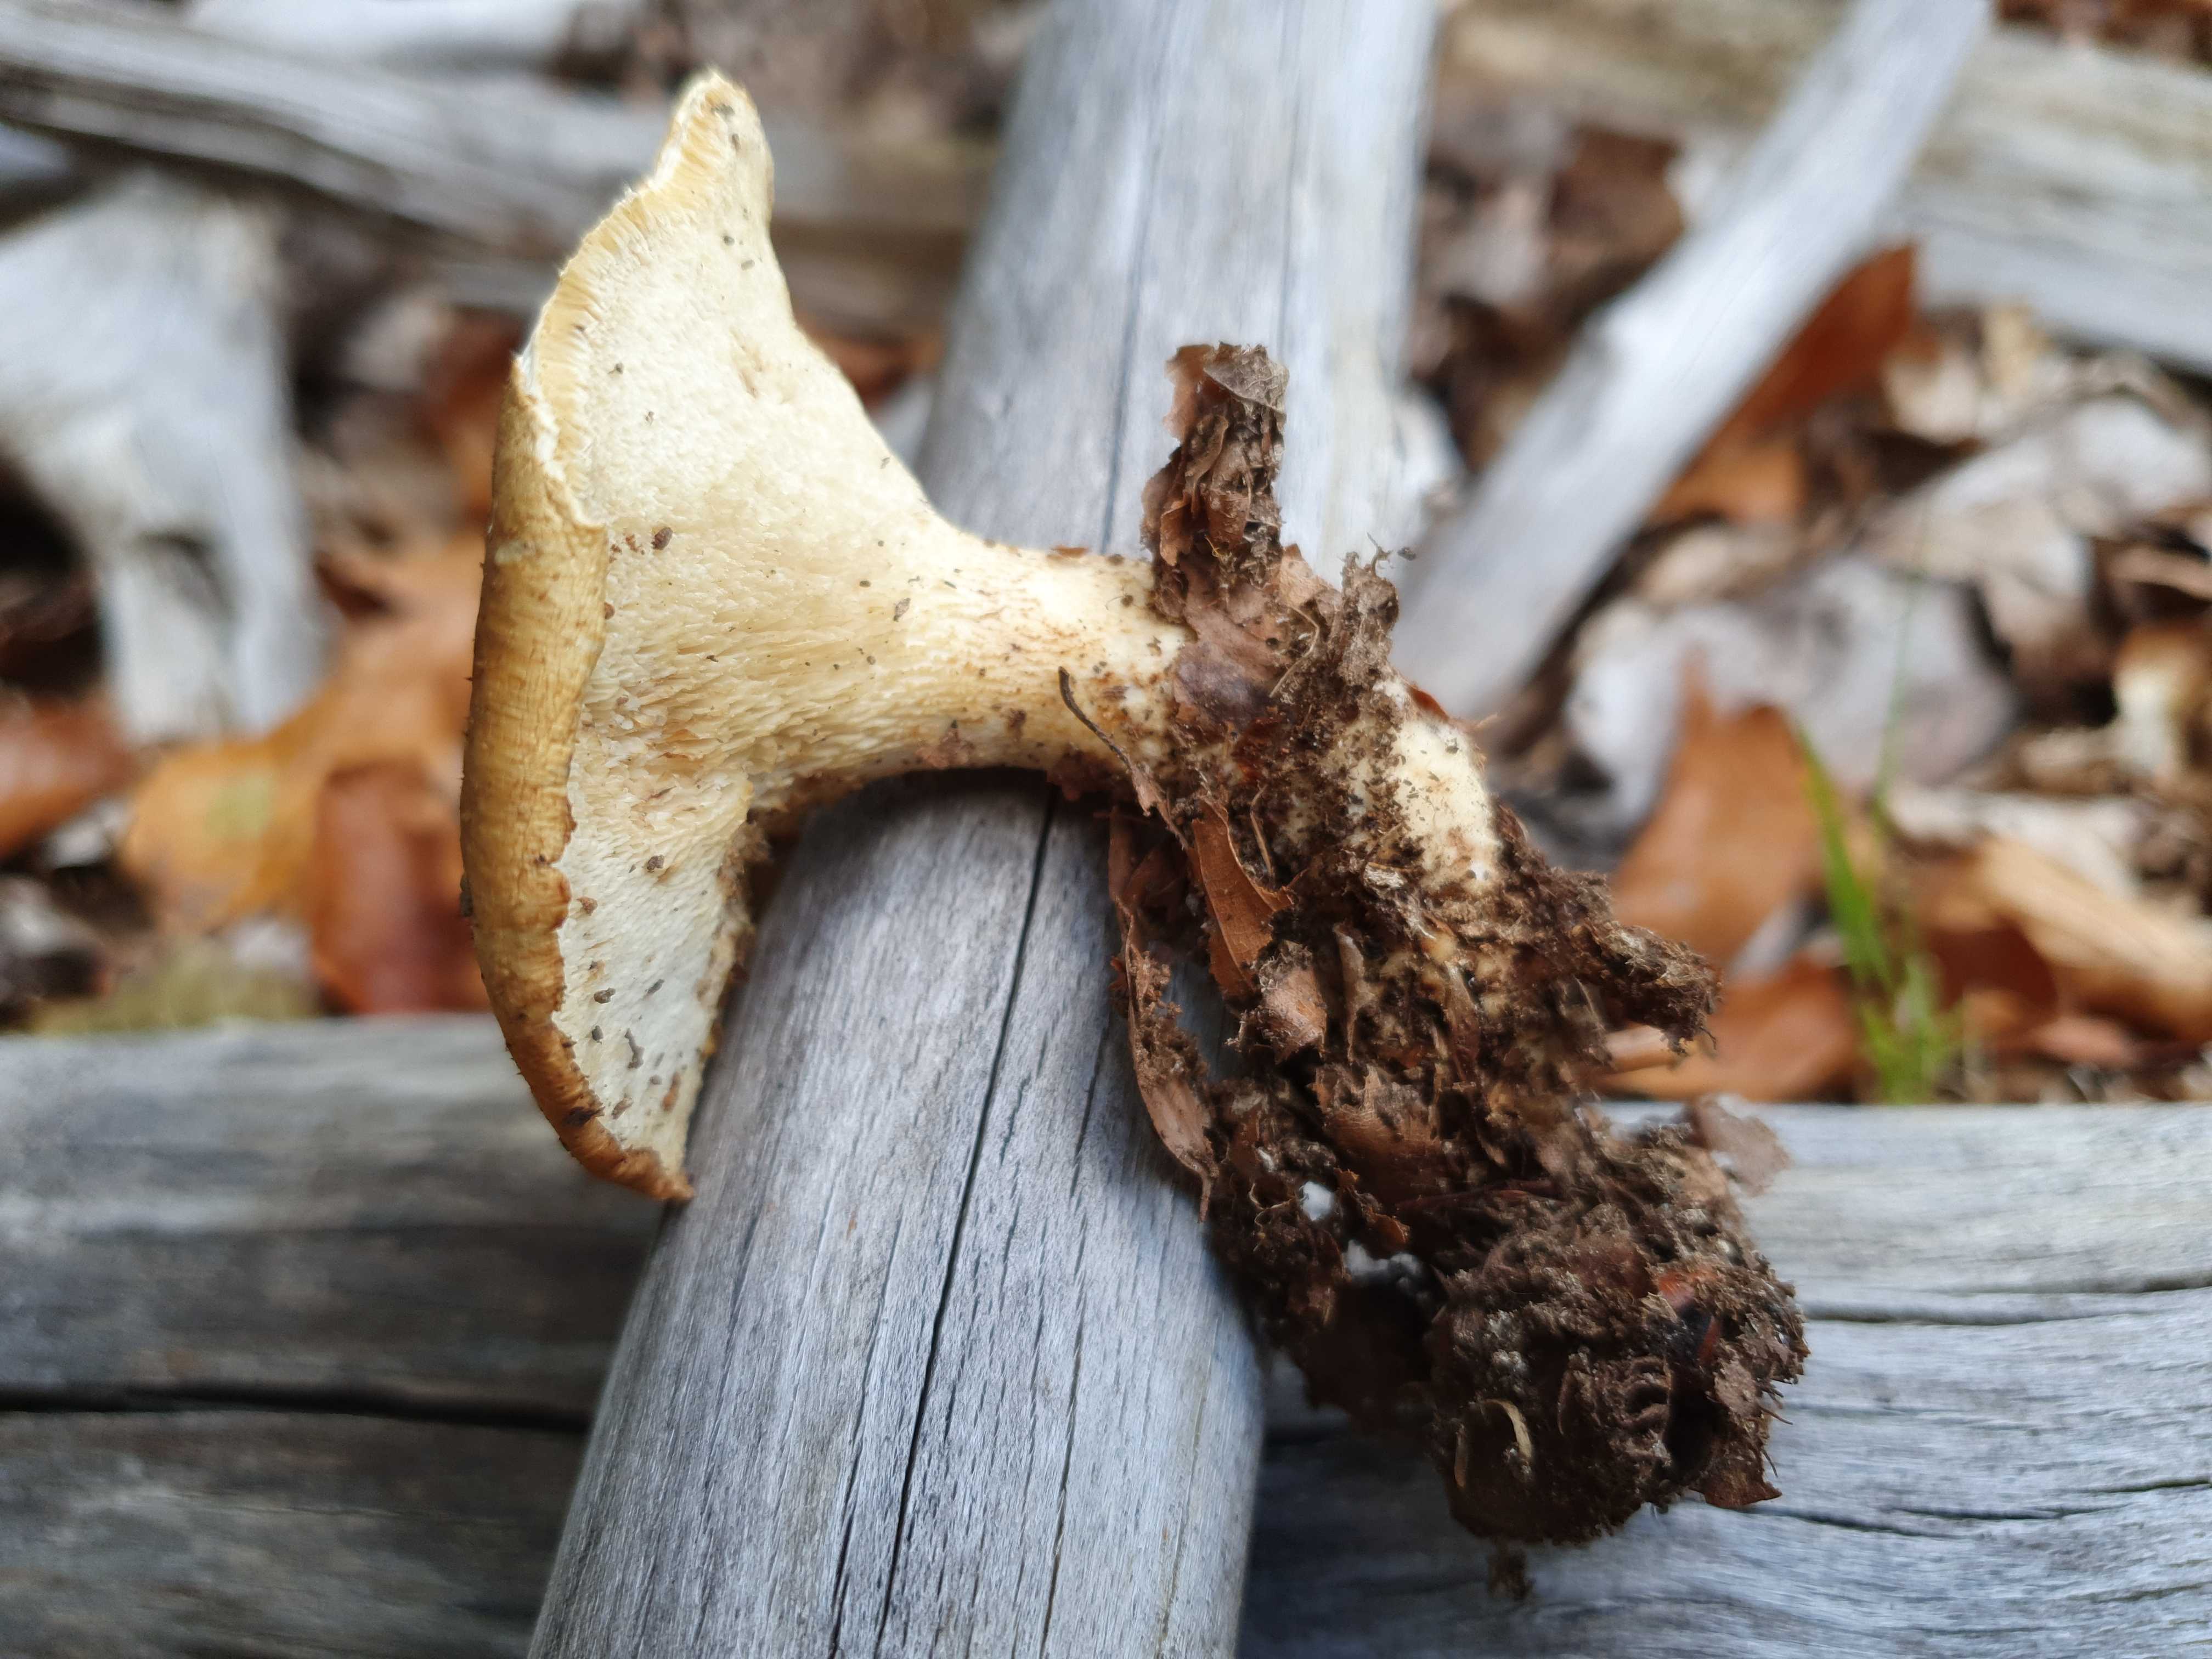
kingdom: Fungi
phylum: Basidiomycota
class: Agaricomycetes
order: Polyporales
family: Polyporaceae
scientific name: Polyporaceae
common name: poresvampfamilien
